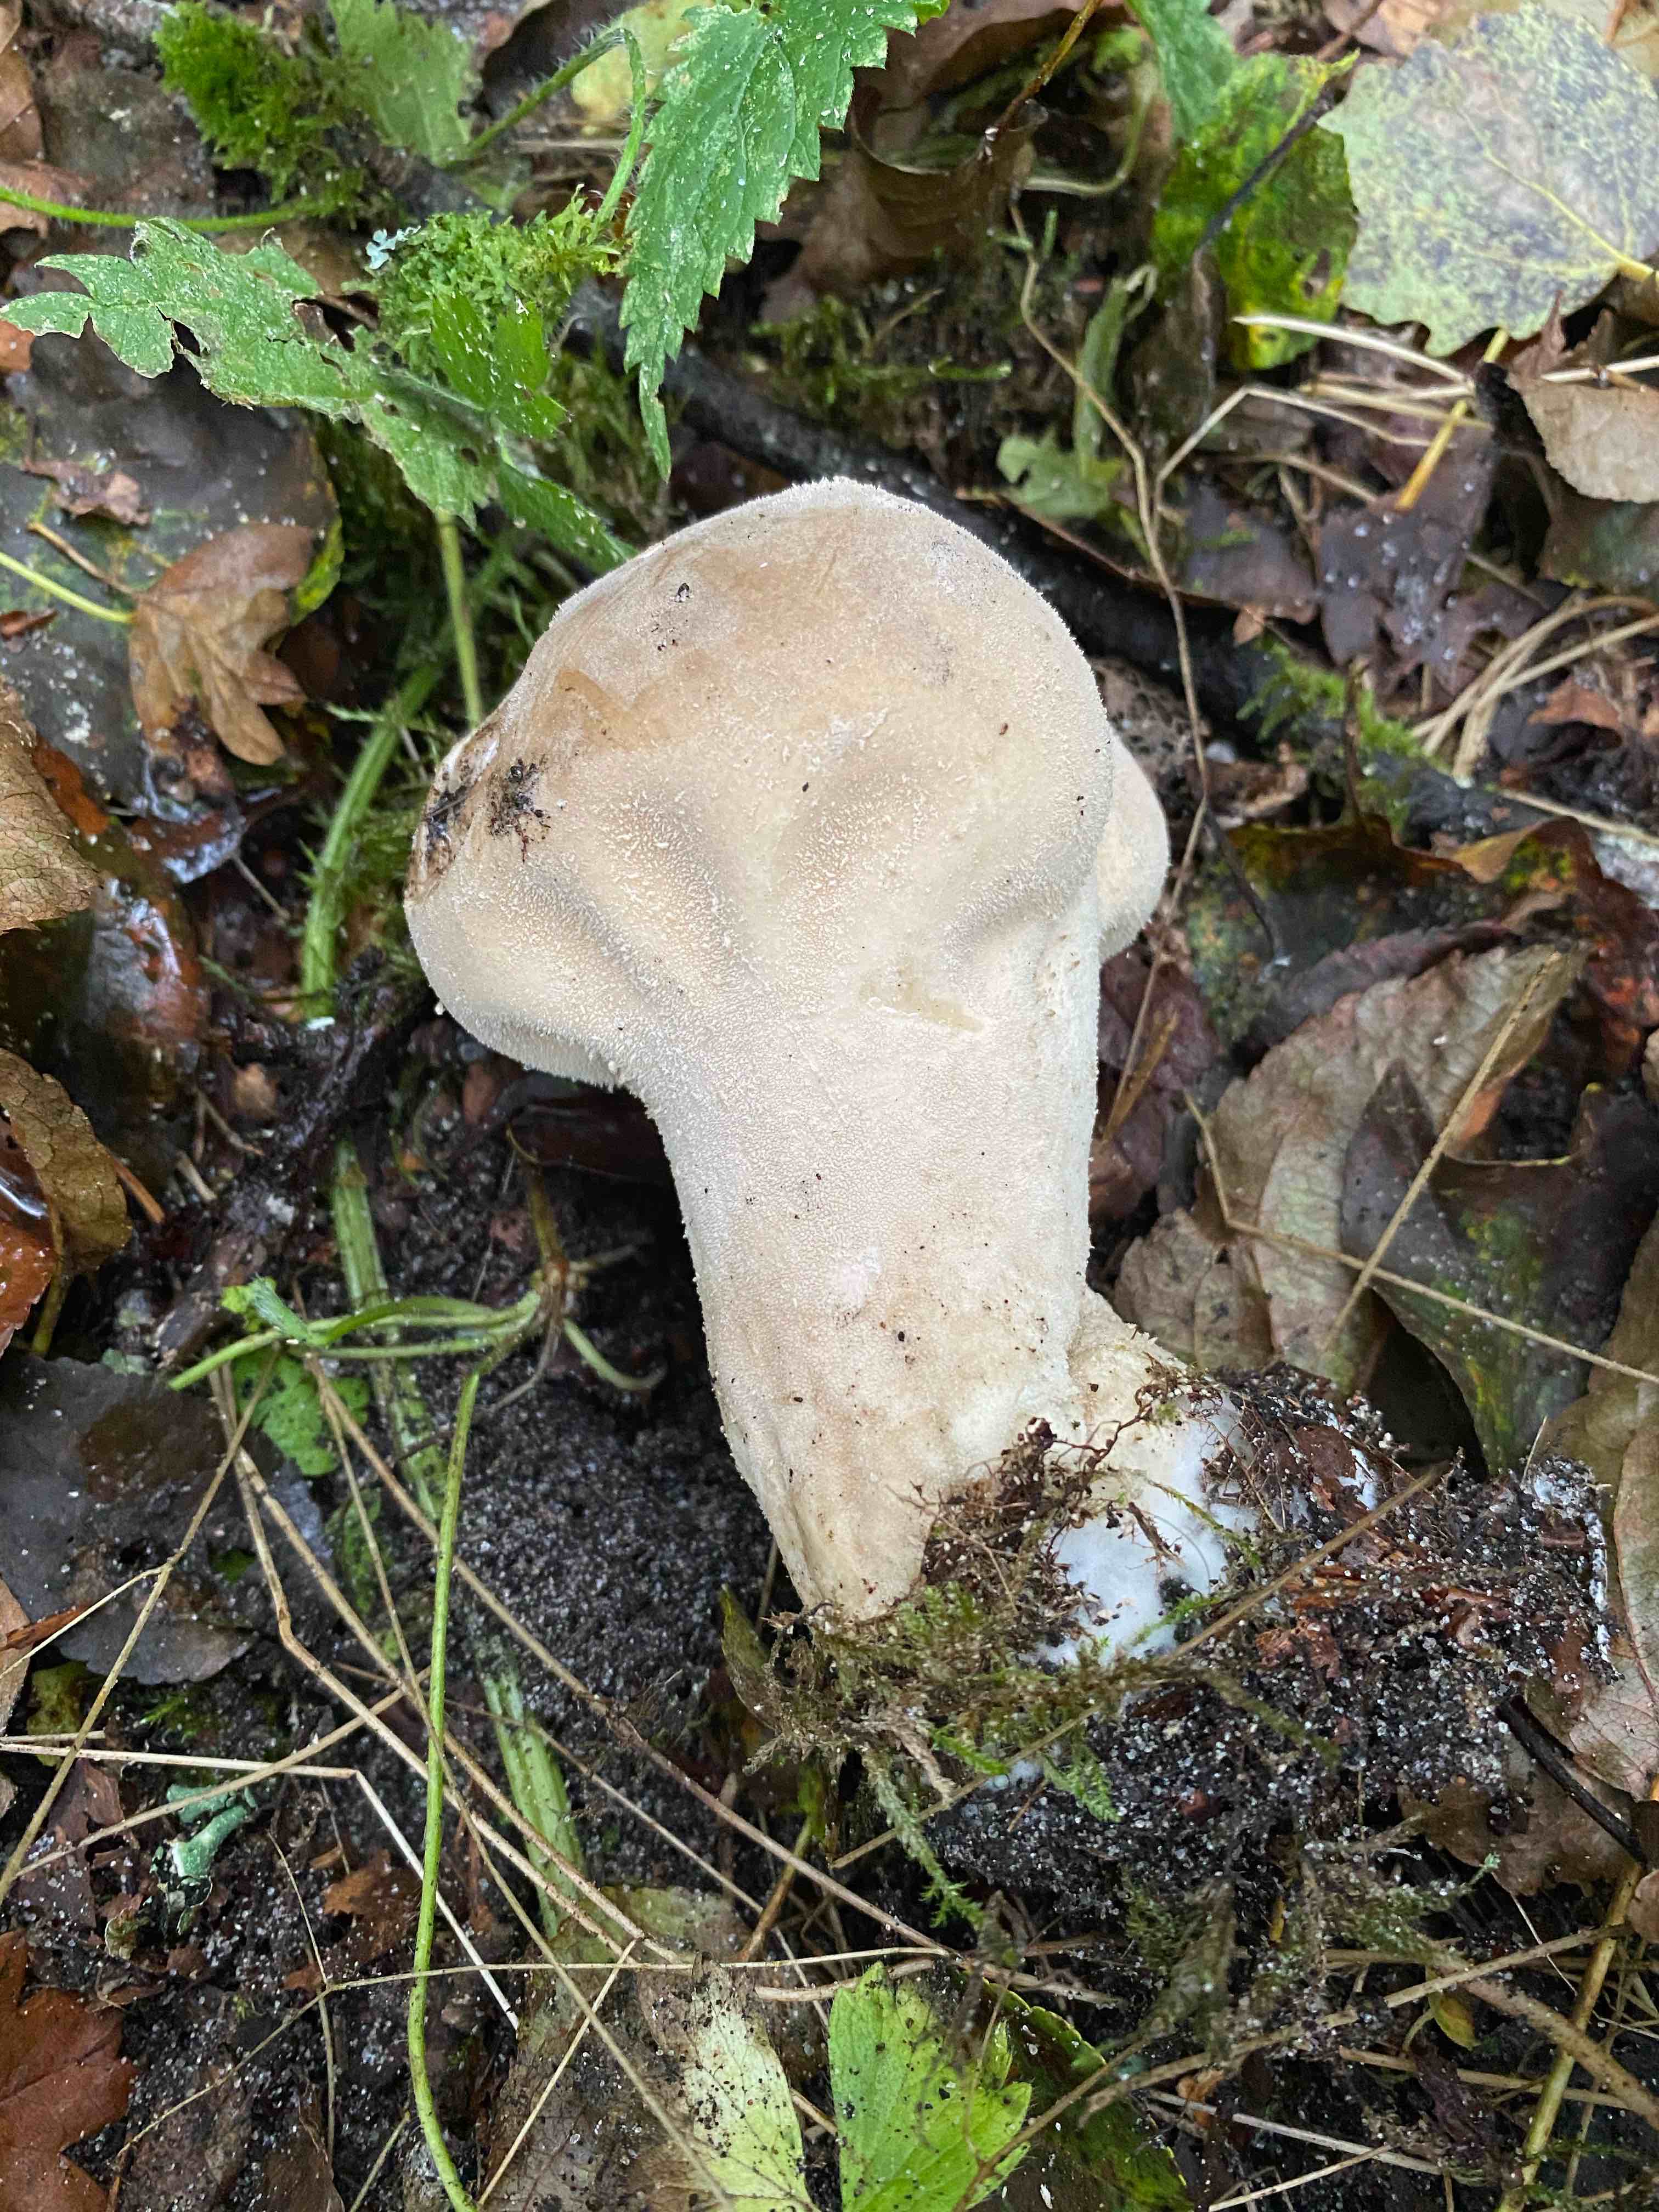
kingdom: Fungi
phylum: Basidiomycota
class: Agaricomycetes
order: Agaricales
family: Lycoperdaceae
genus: Lycoperdon
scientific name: Lycoperdon excipuliforme
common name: højstokket støvbold
